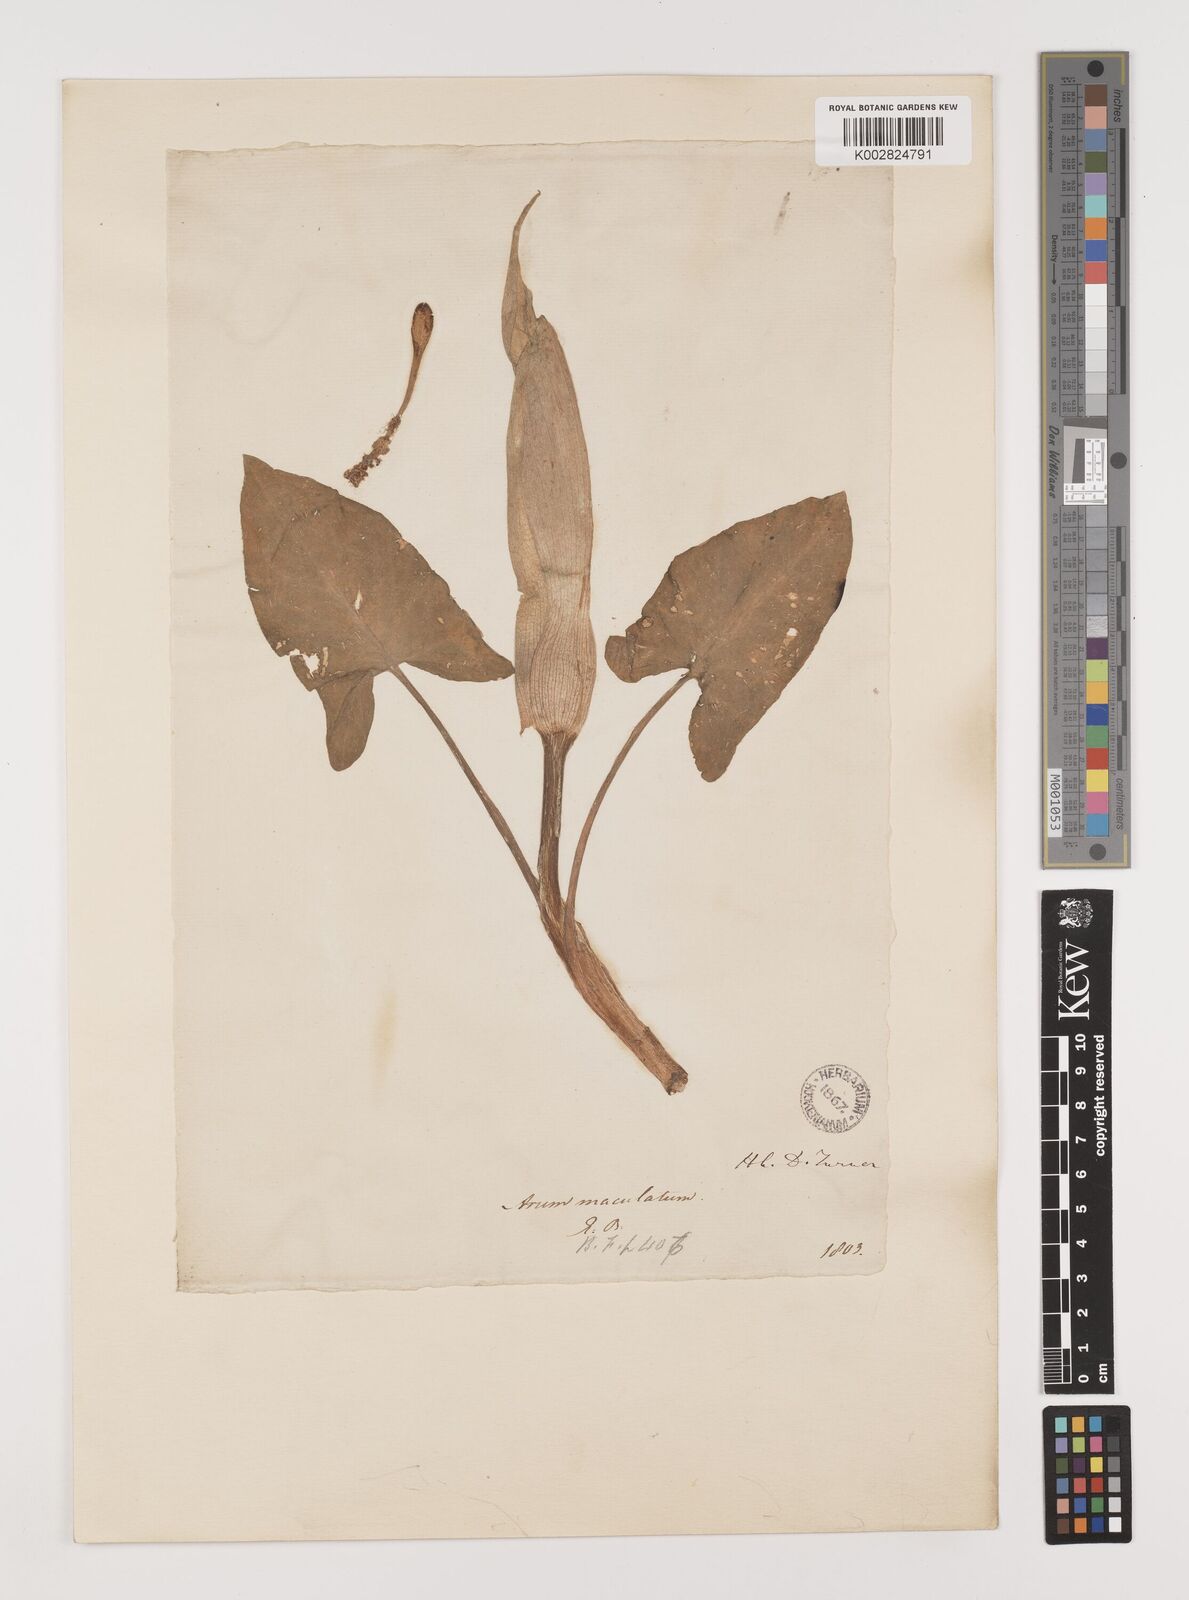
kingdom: Plantae
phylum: Tracheophyta
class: Liliopsida
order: Alismatales
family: Araceae
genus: Arum
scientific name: Arum maculatum
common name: Lords-and-ladies
